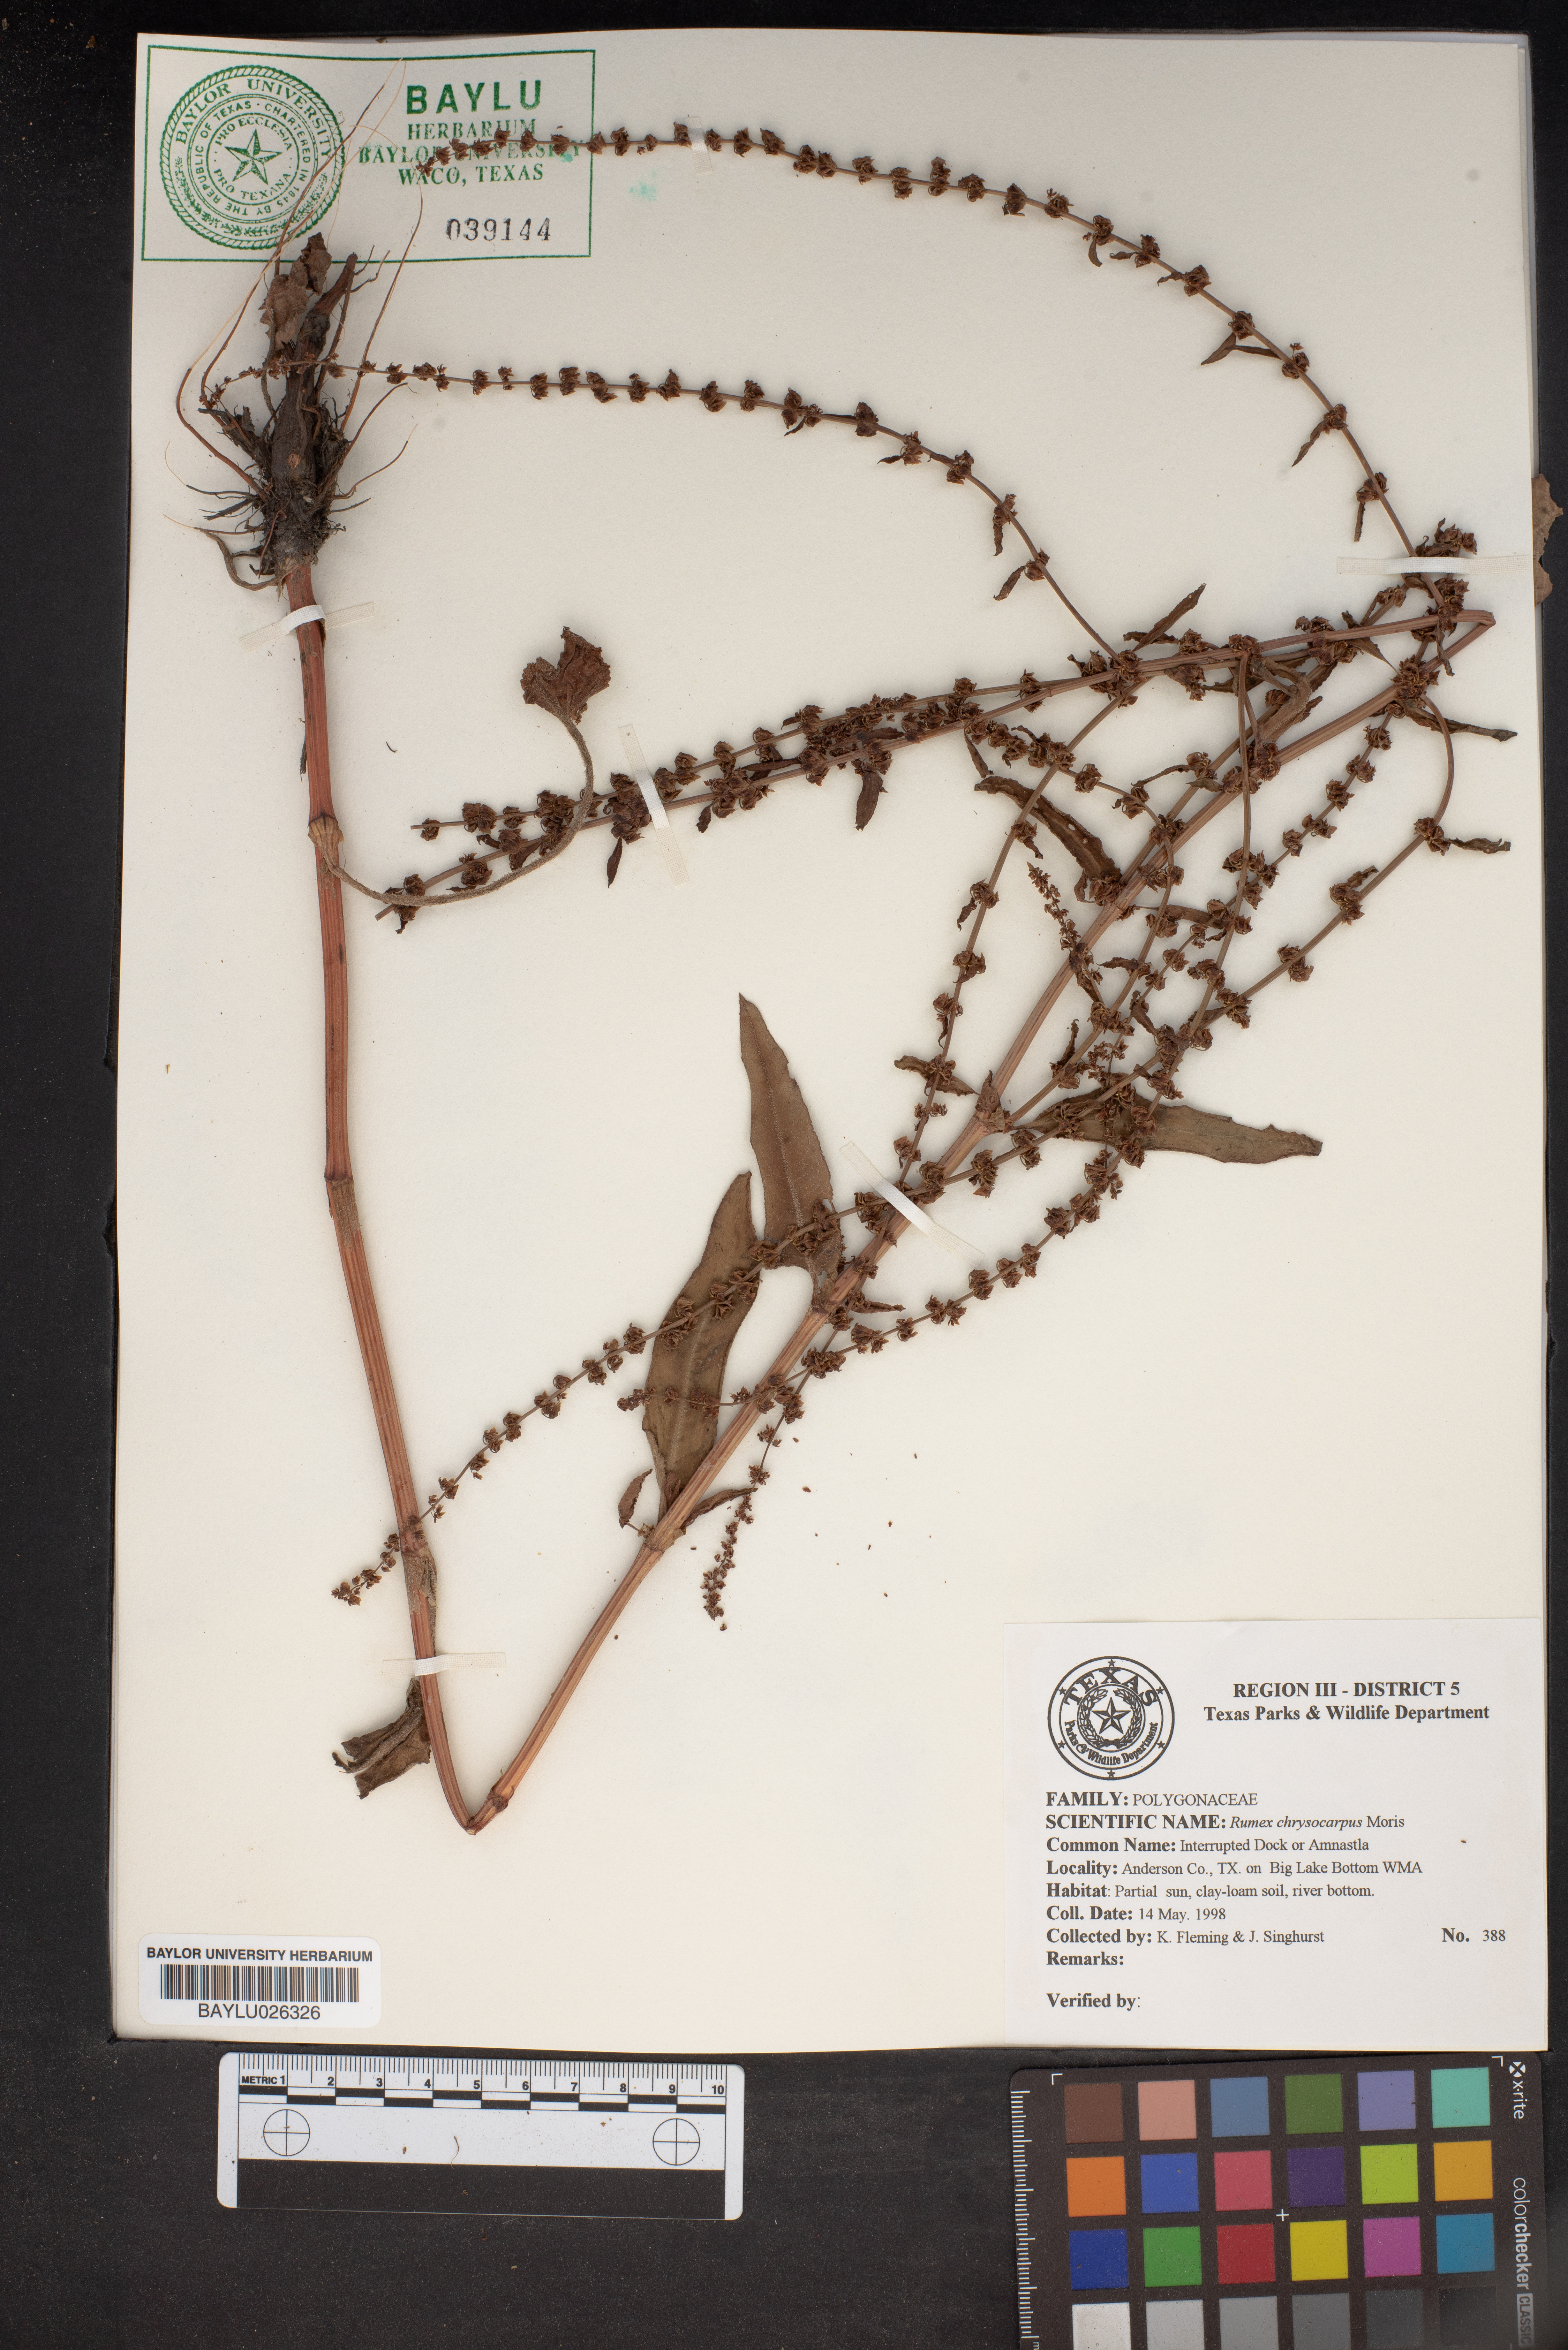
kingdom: Plantae
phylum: Tracheophyta
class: Magnoliopsida
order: Caryophyllales
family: Polygonaceae
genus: Rumex
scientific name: Rumex chrysocarpus
